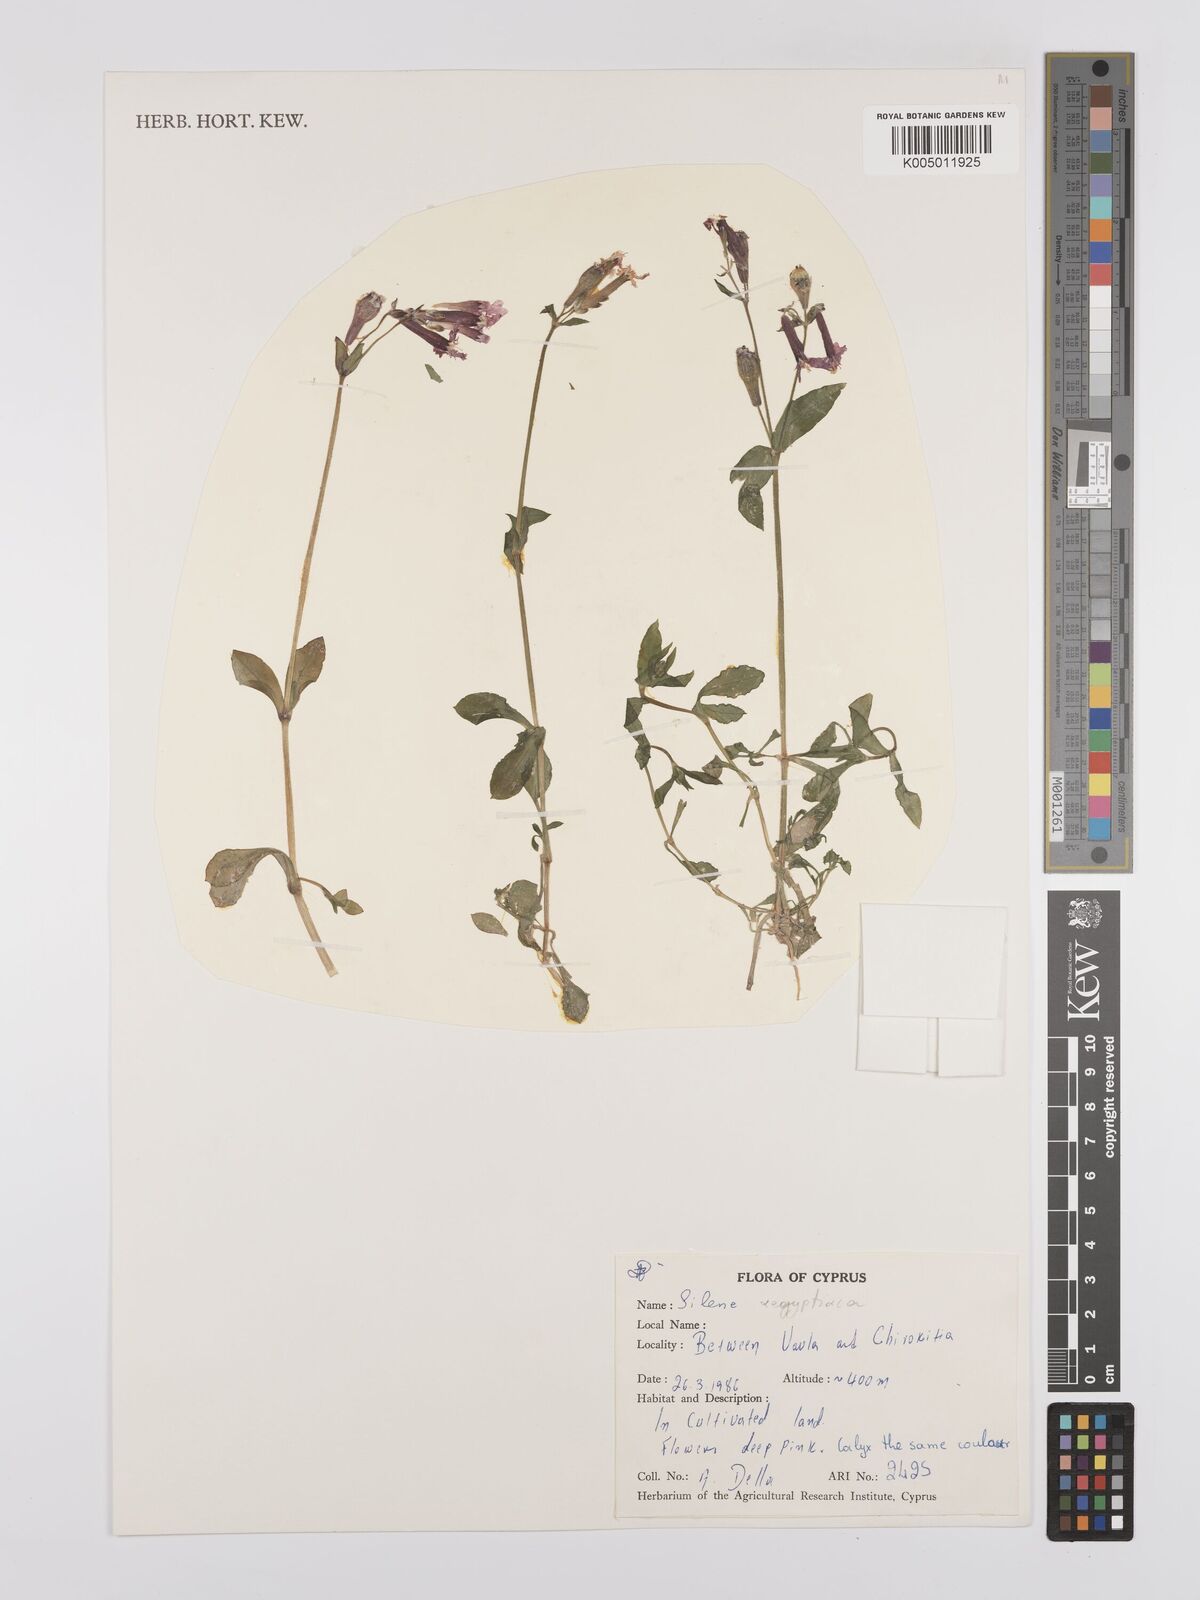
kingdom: Plantae
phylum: Tracheophyta
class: Magnoliopsida
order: Caryophyllales
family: Caryophyllaceae
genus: Silene
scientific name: Silene aegyptiaca
